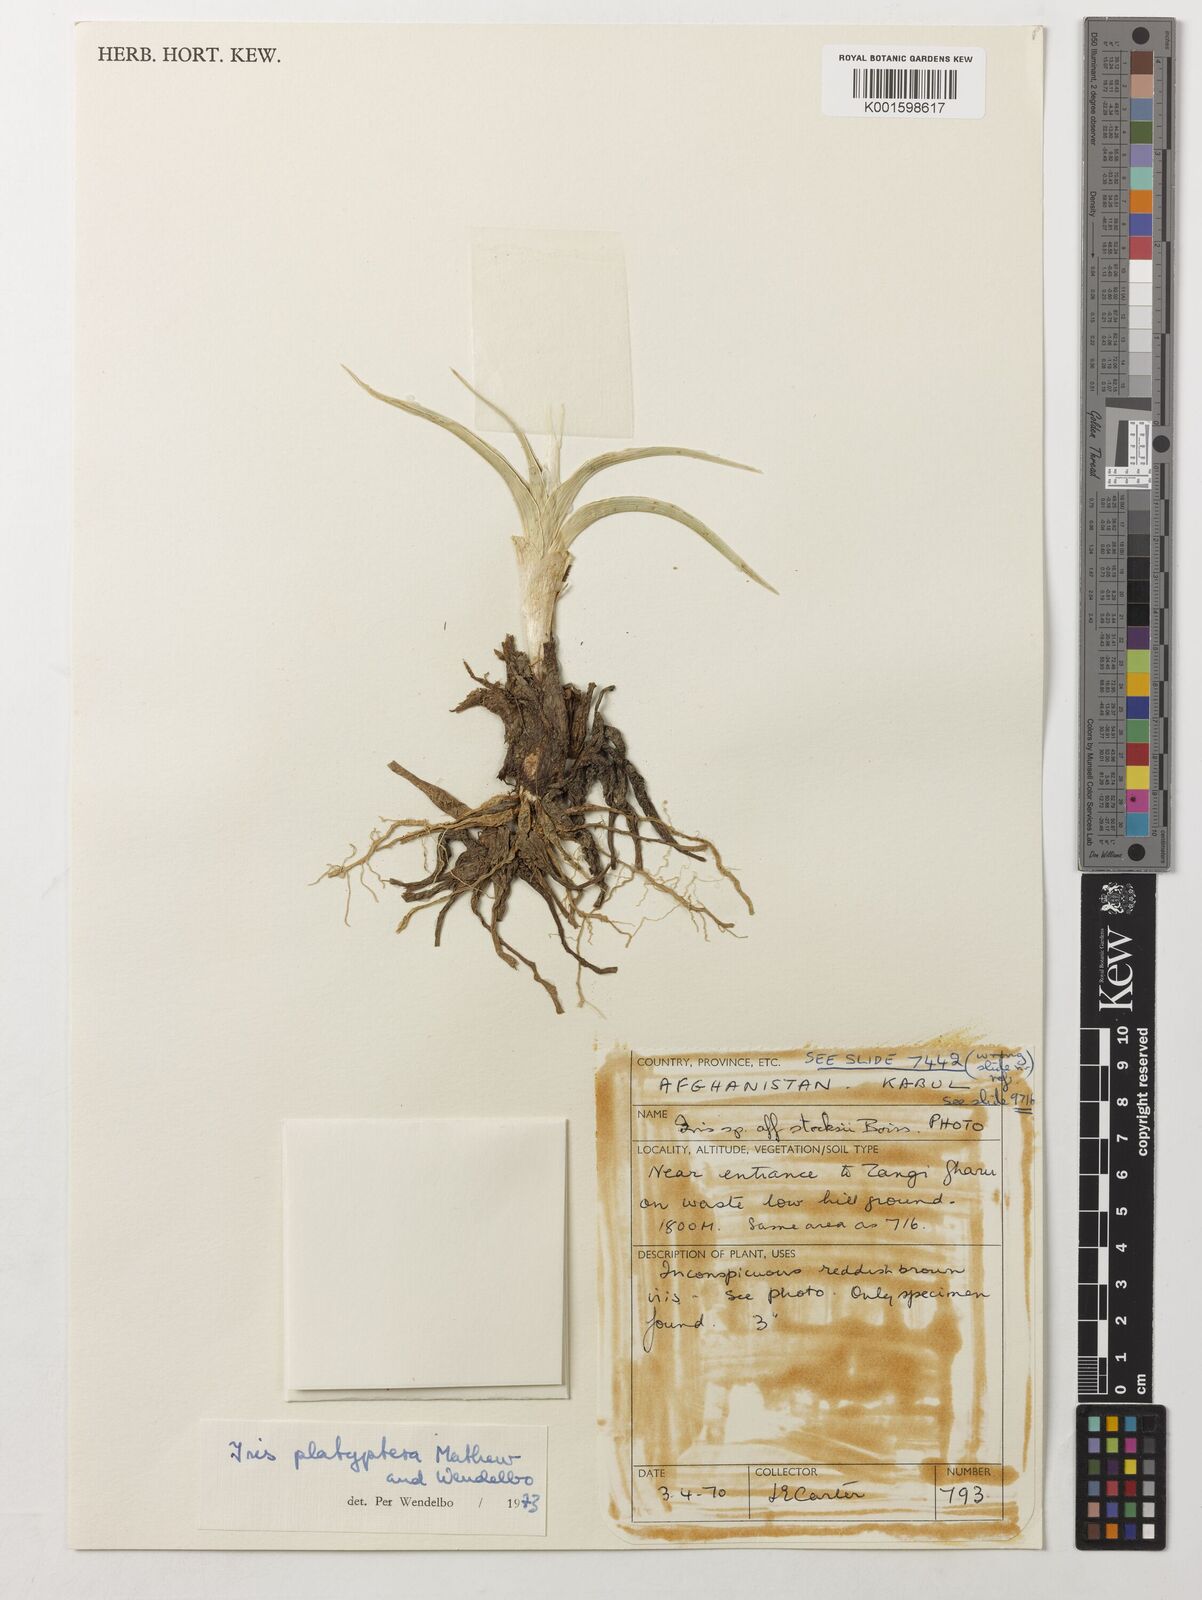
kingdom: Plantae
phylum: Tracheophyta
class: Liliopsida
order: Asparagales
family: Iridaceae
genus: Iris
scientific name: Iris platyptera
